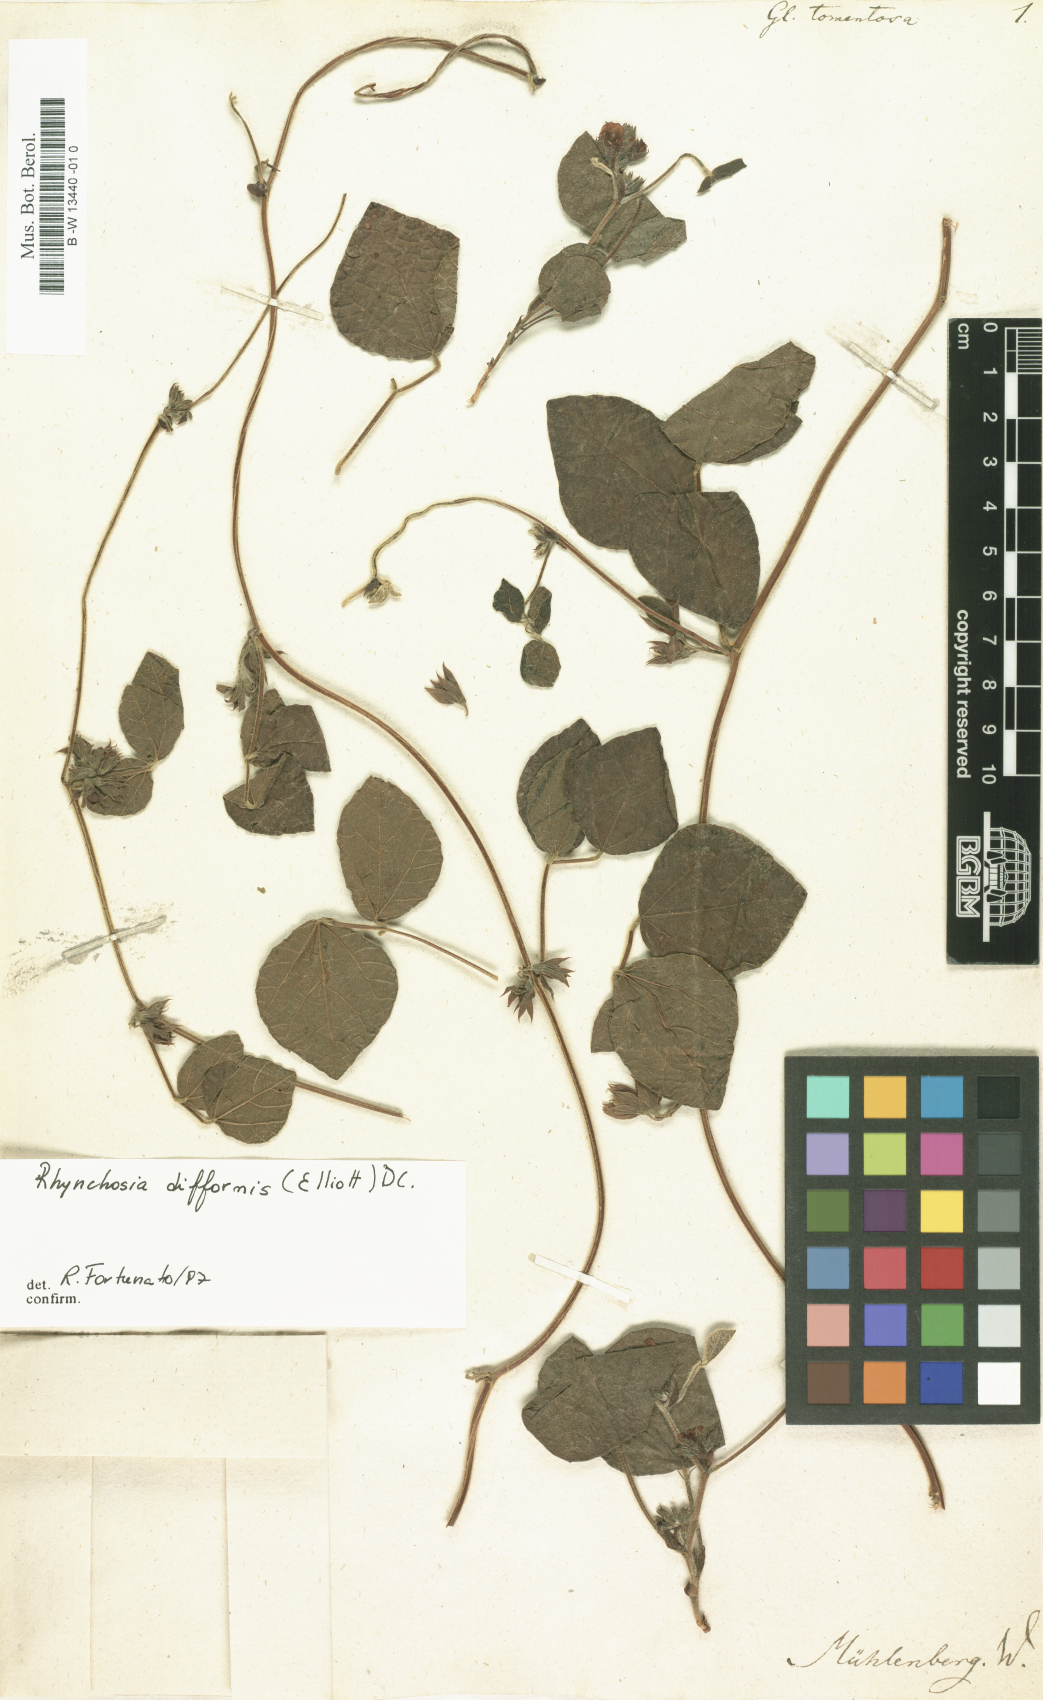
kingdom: Plantae
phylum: Tracheophyta
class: Magnoliopsida
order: Fabales
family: Fabaceae
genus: Glycine
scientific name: Glycine tomentella
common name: Hairy glycine
